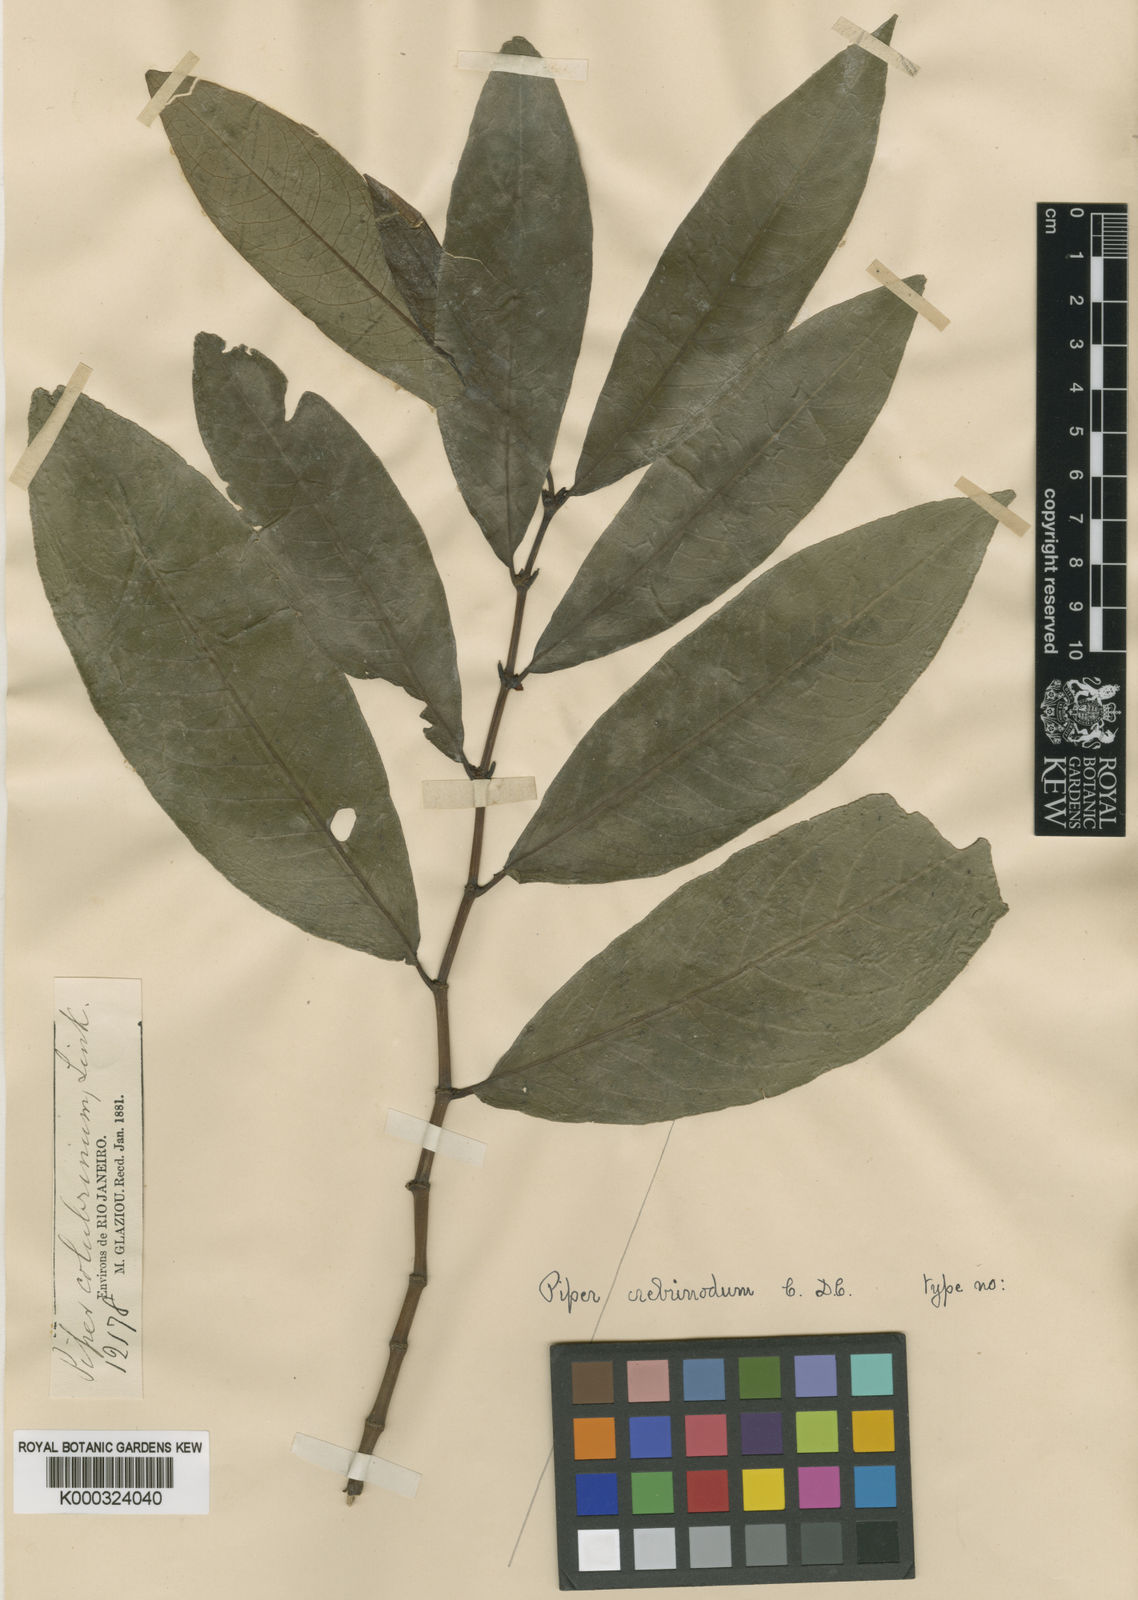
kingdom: Plantae
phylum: Tracheophyta
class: Magnoliopsida
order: Piperales
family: Piperaceae
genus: Piper
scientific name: Piper crebrinodum
